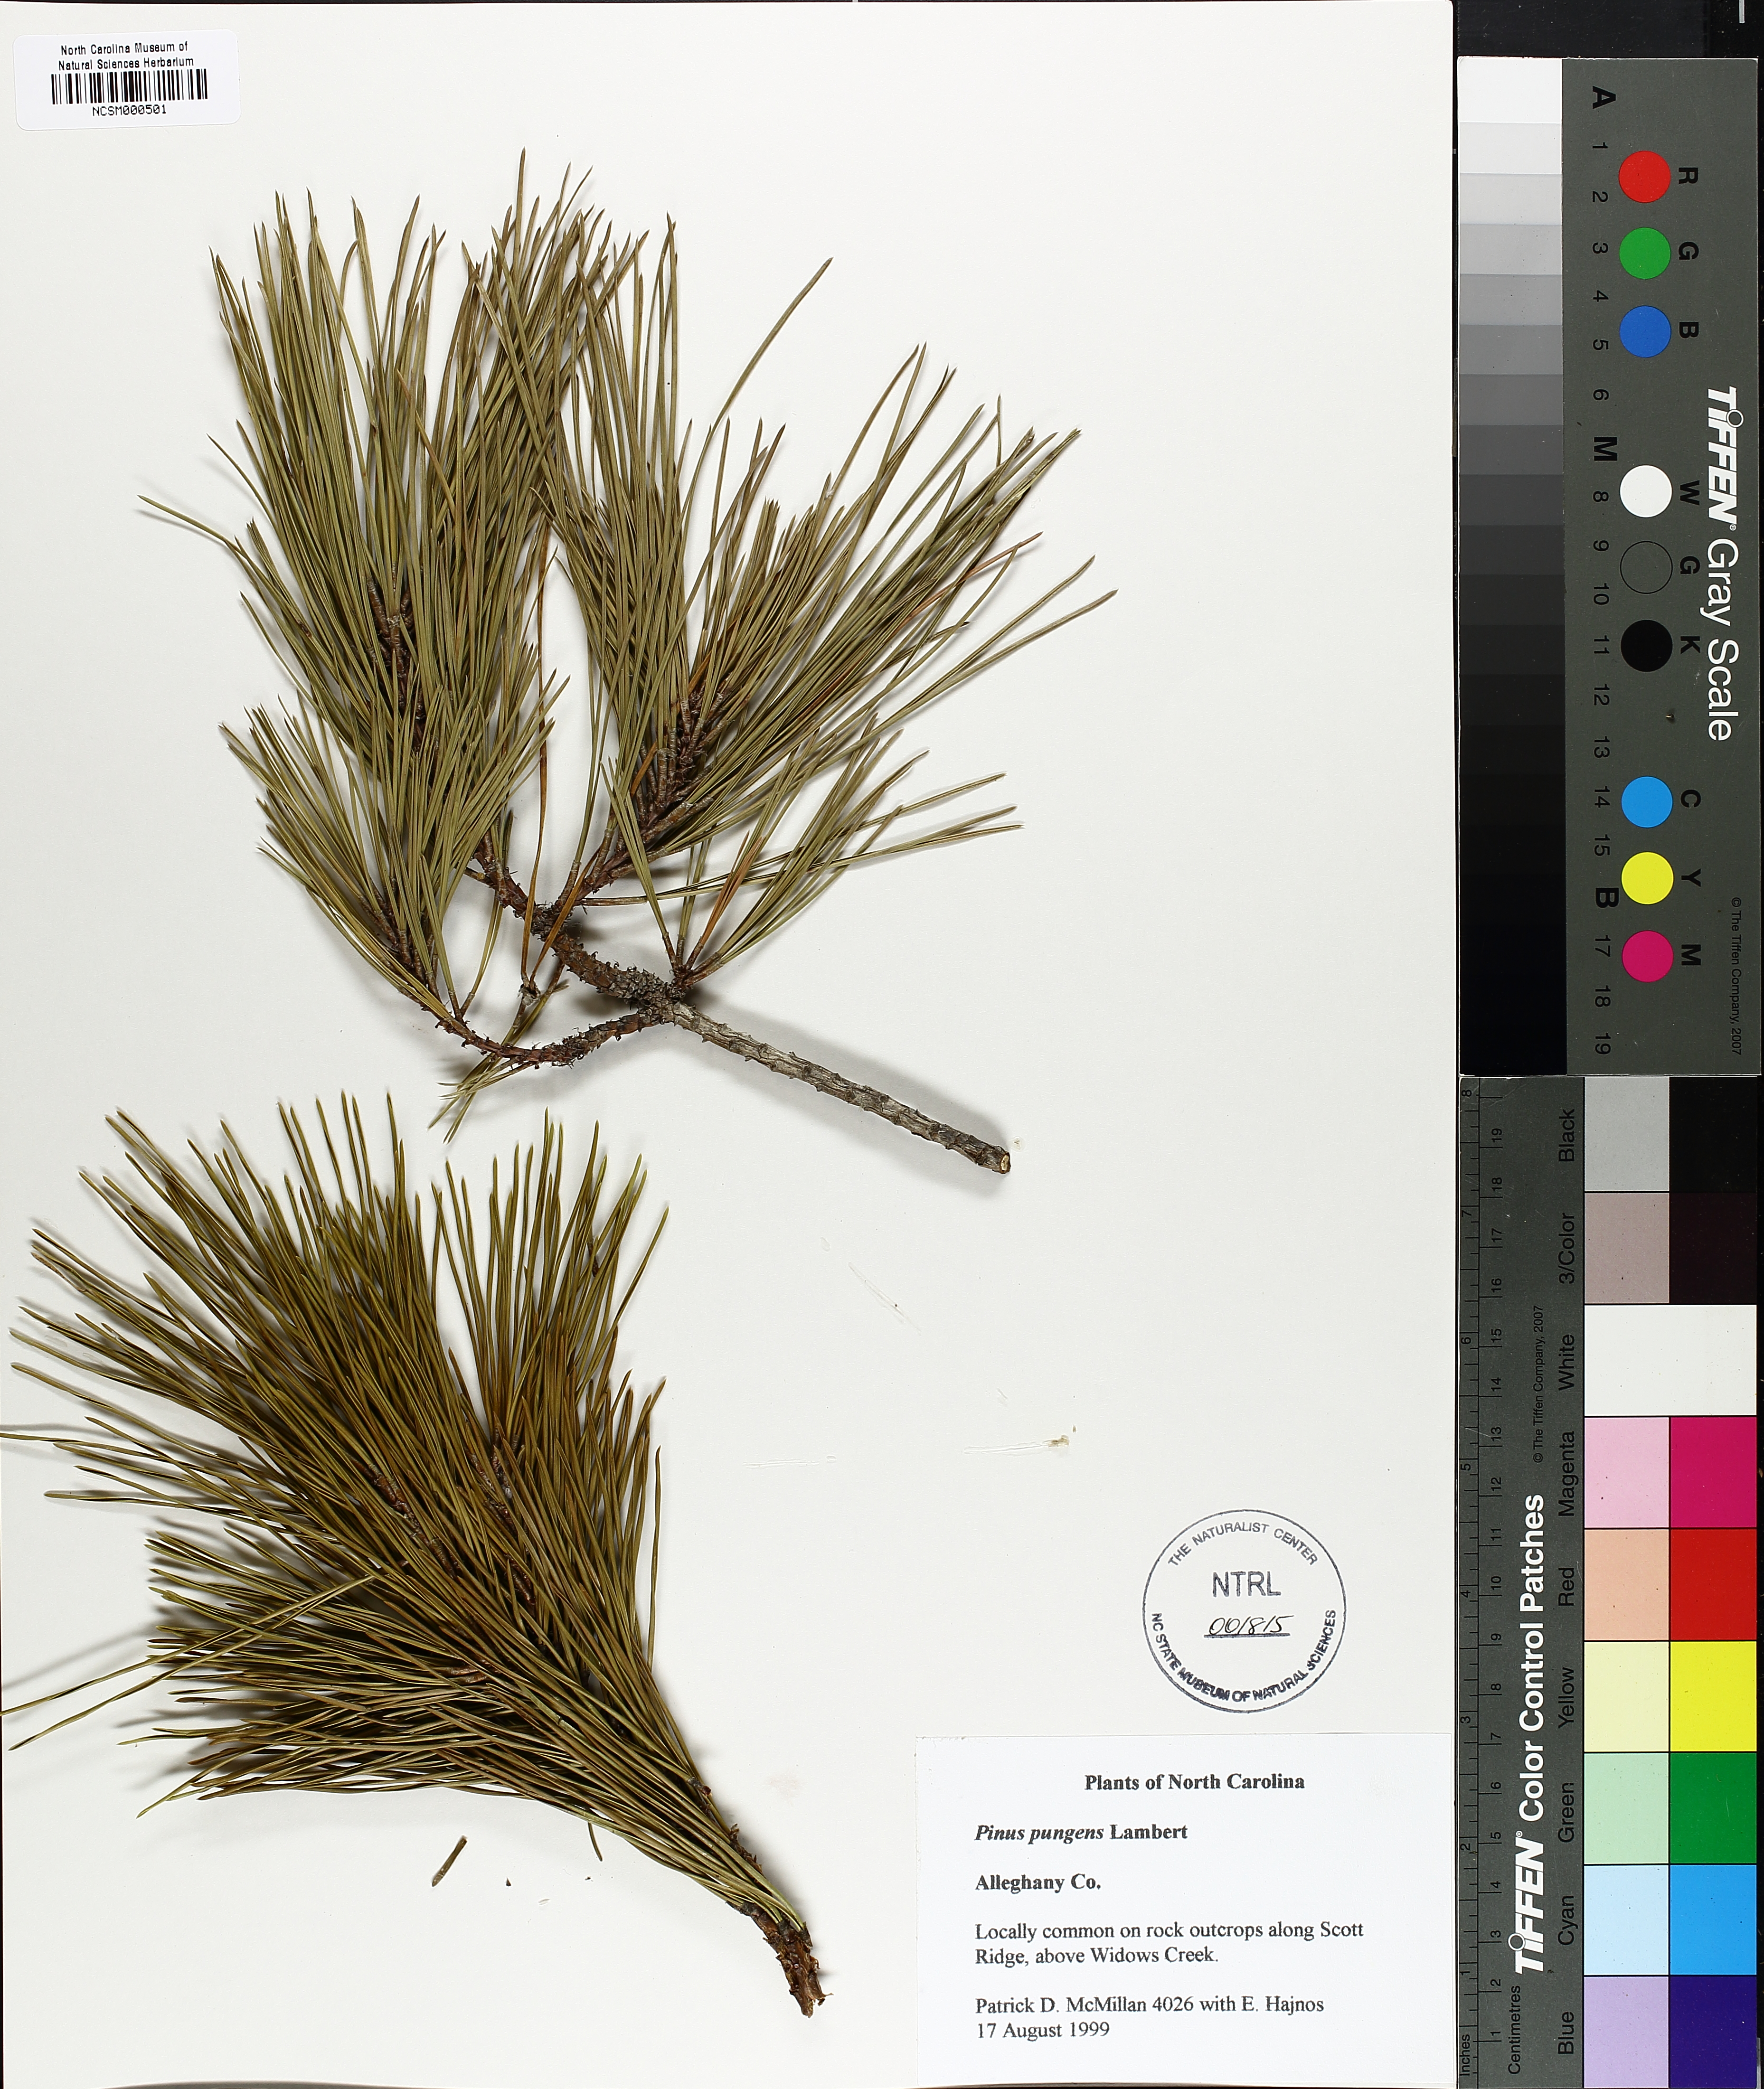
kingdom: Plantae
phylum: Tracheophyta
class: Pinopsida
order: Pinales
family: Pinaceae
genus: Pinus
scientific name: Pinus pungens
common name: Hickory pine
